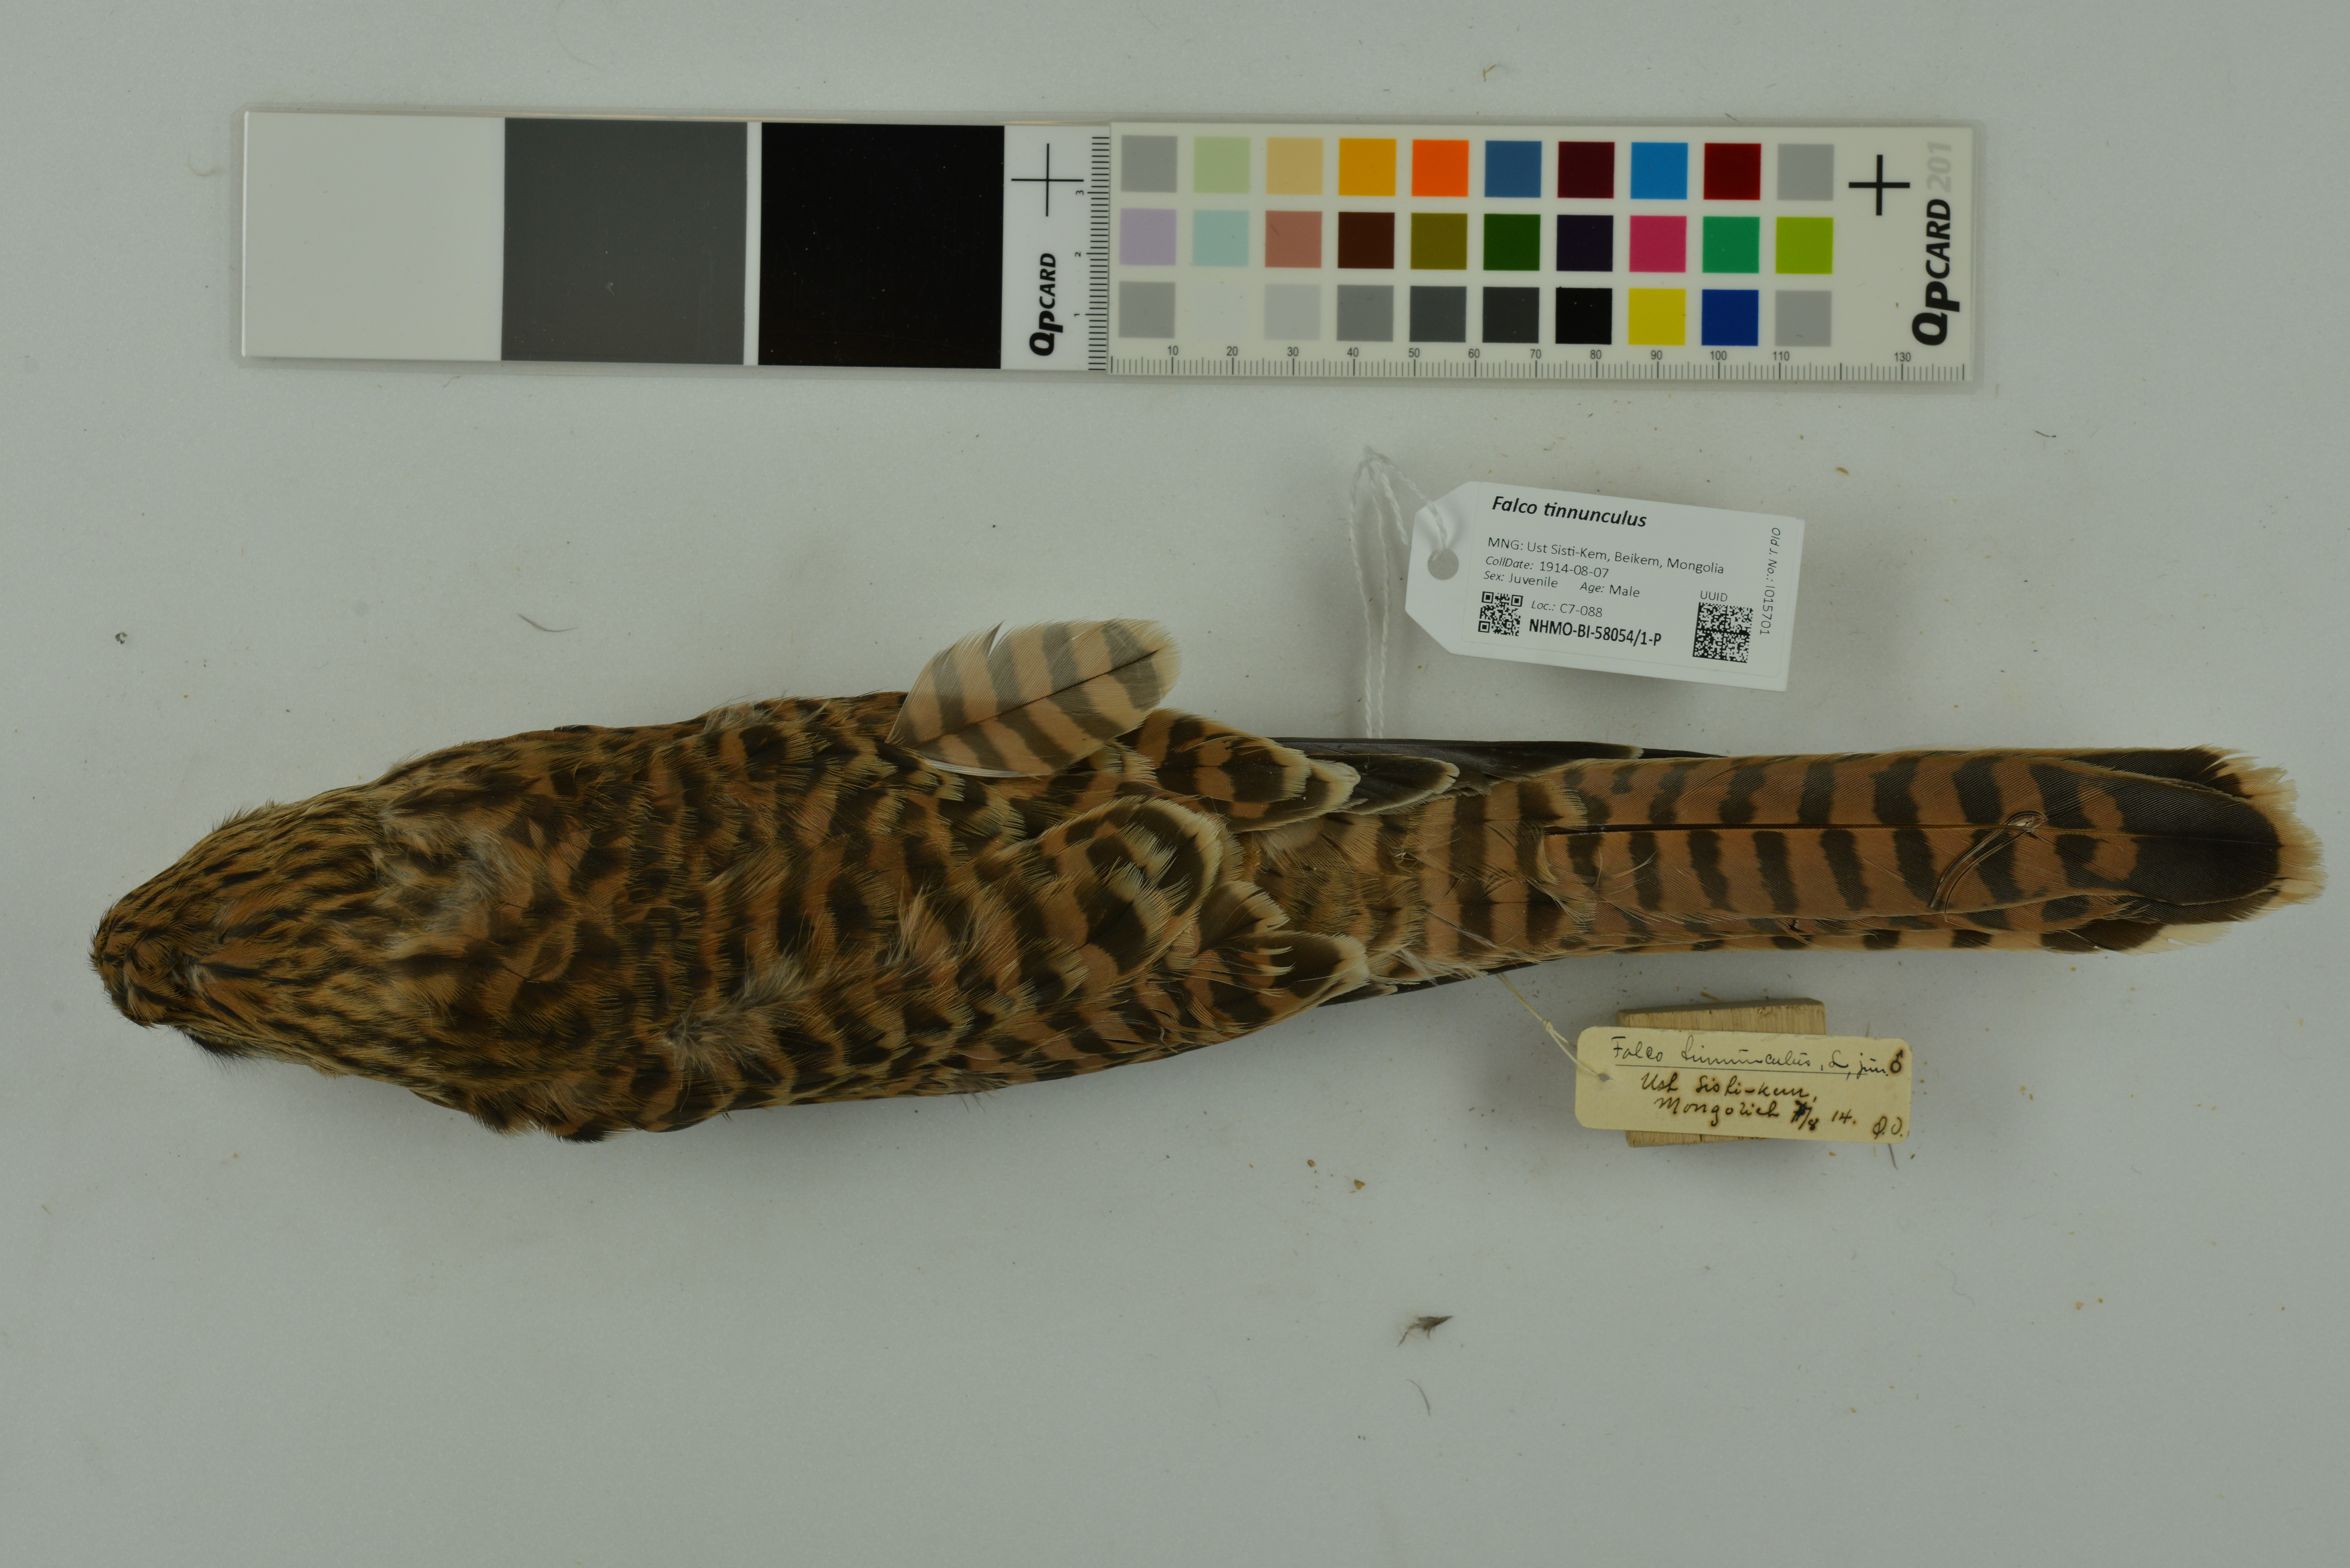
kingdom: Animalia
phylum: Chordata
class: Aves
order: Falconiformes
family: Falconidae
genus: Falco
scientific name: Falco tinnunculus
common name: Common kestrel
